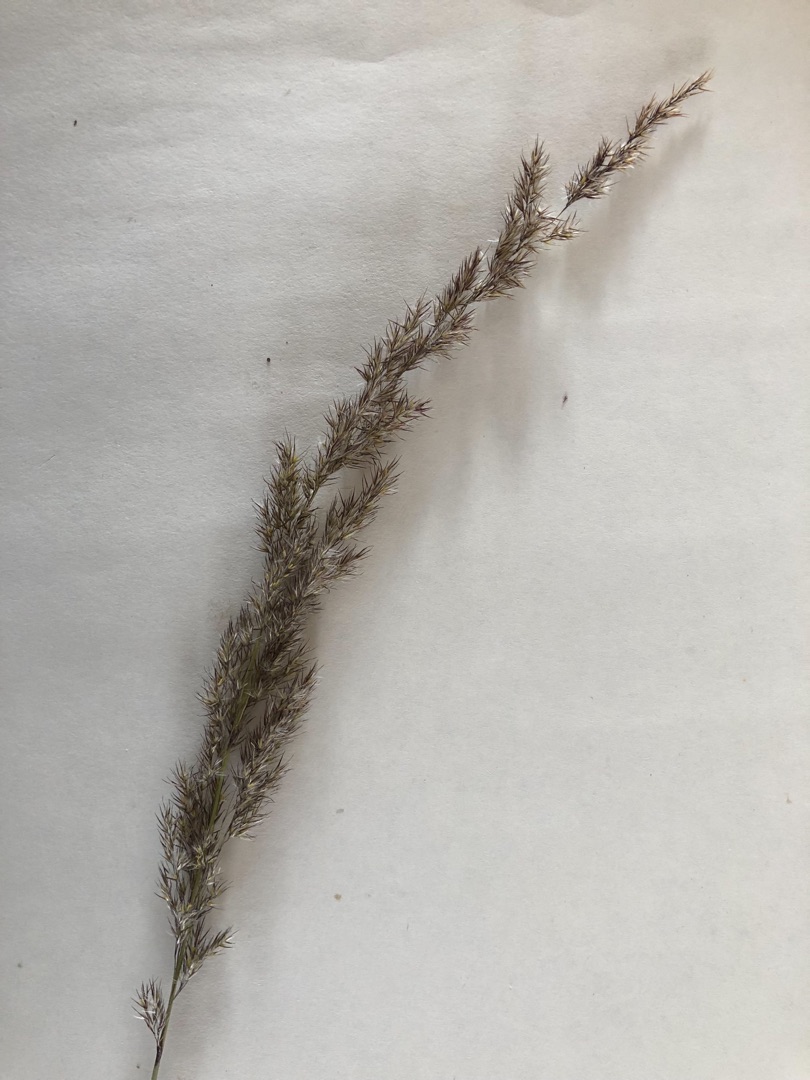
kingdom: Plantae
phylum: Tracheophyta
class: Liliopsida
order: Poales
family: Poaceae
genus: Calamagrostis
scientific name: Calamagrostis epigejos
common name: Bjerg-rørhvene
